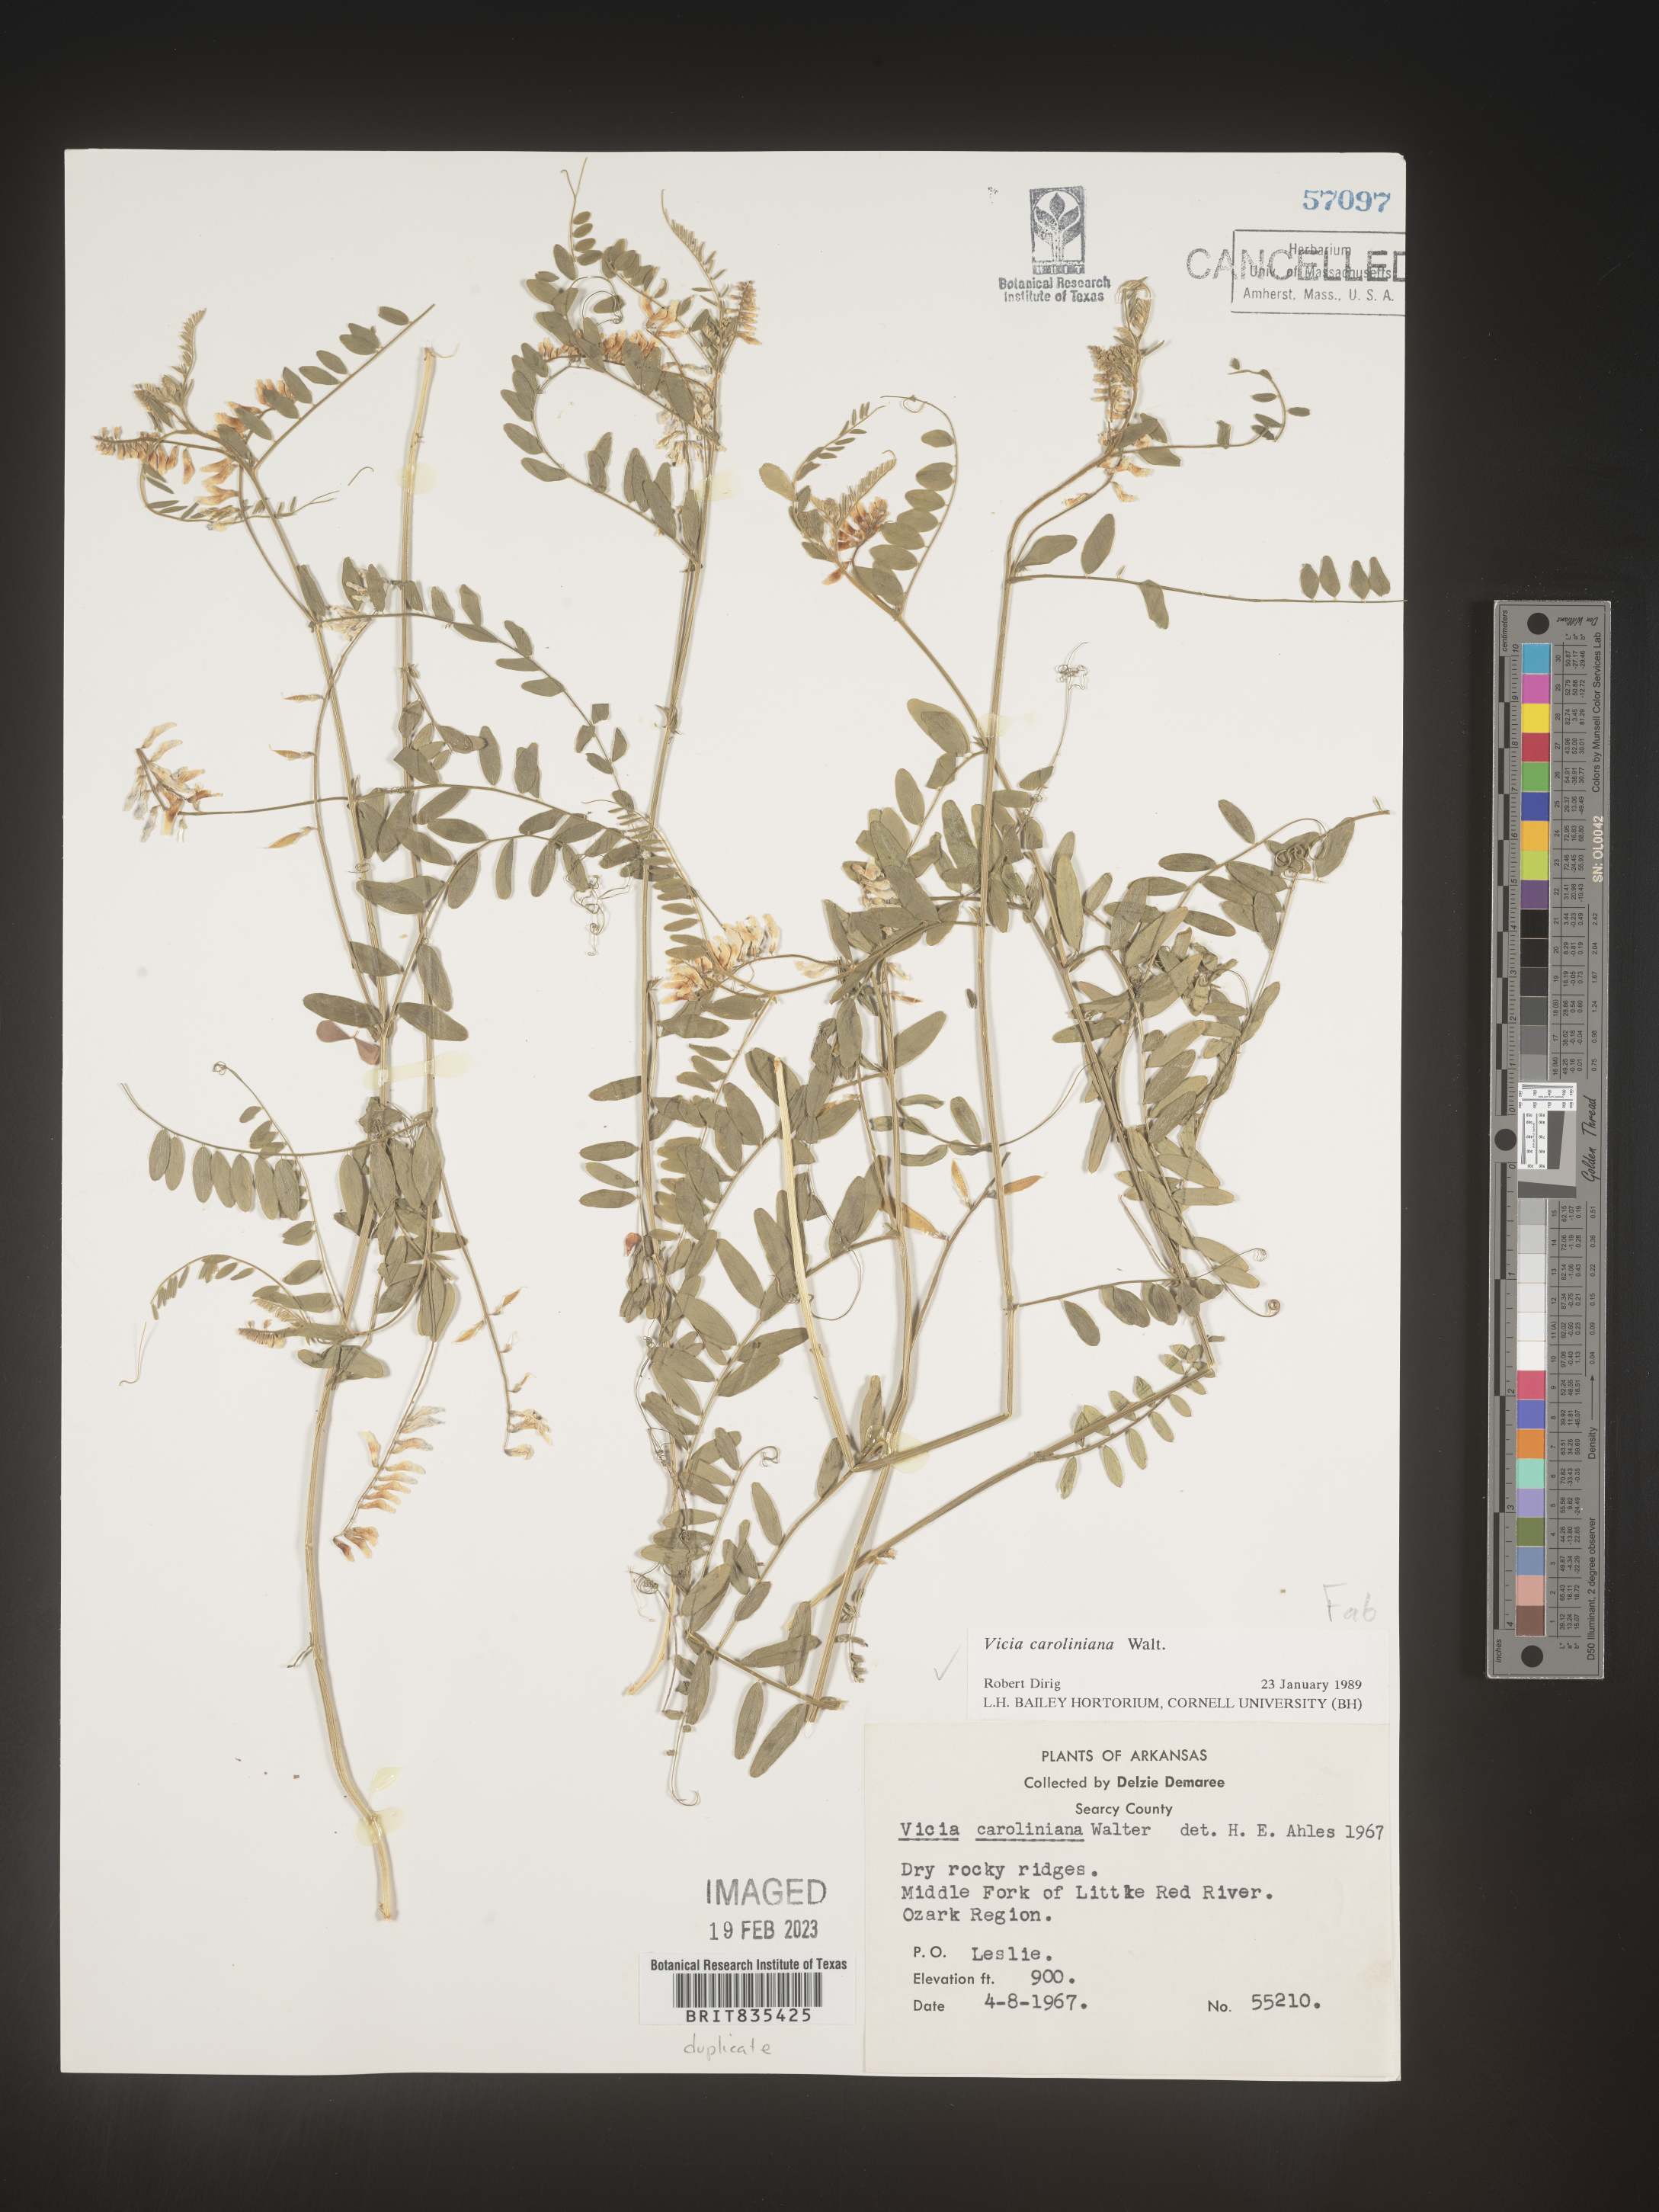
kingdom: Plantae
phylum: Tracheophyta
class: Magnoliopsida
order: Fabales
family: Fabaceae
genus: Vicia
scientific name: Vicia caroliniana
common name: Carolina vetch
